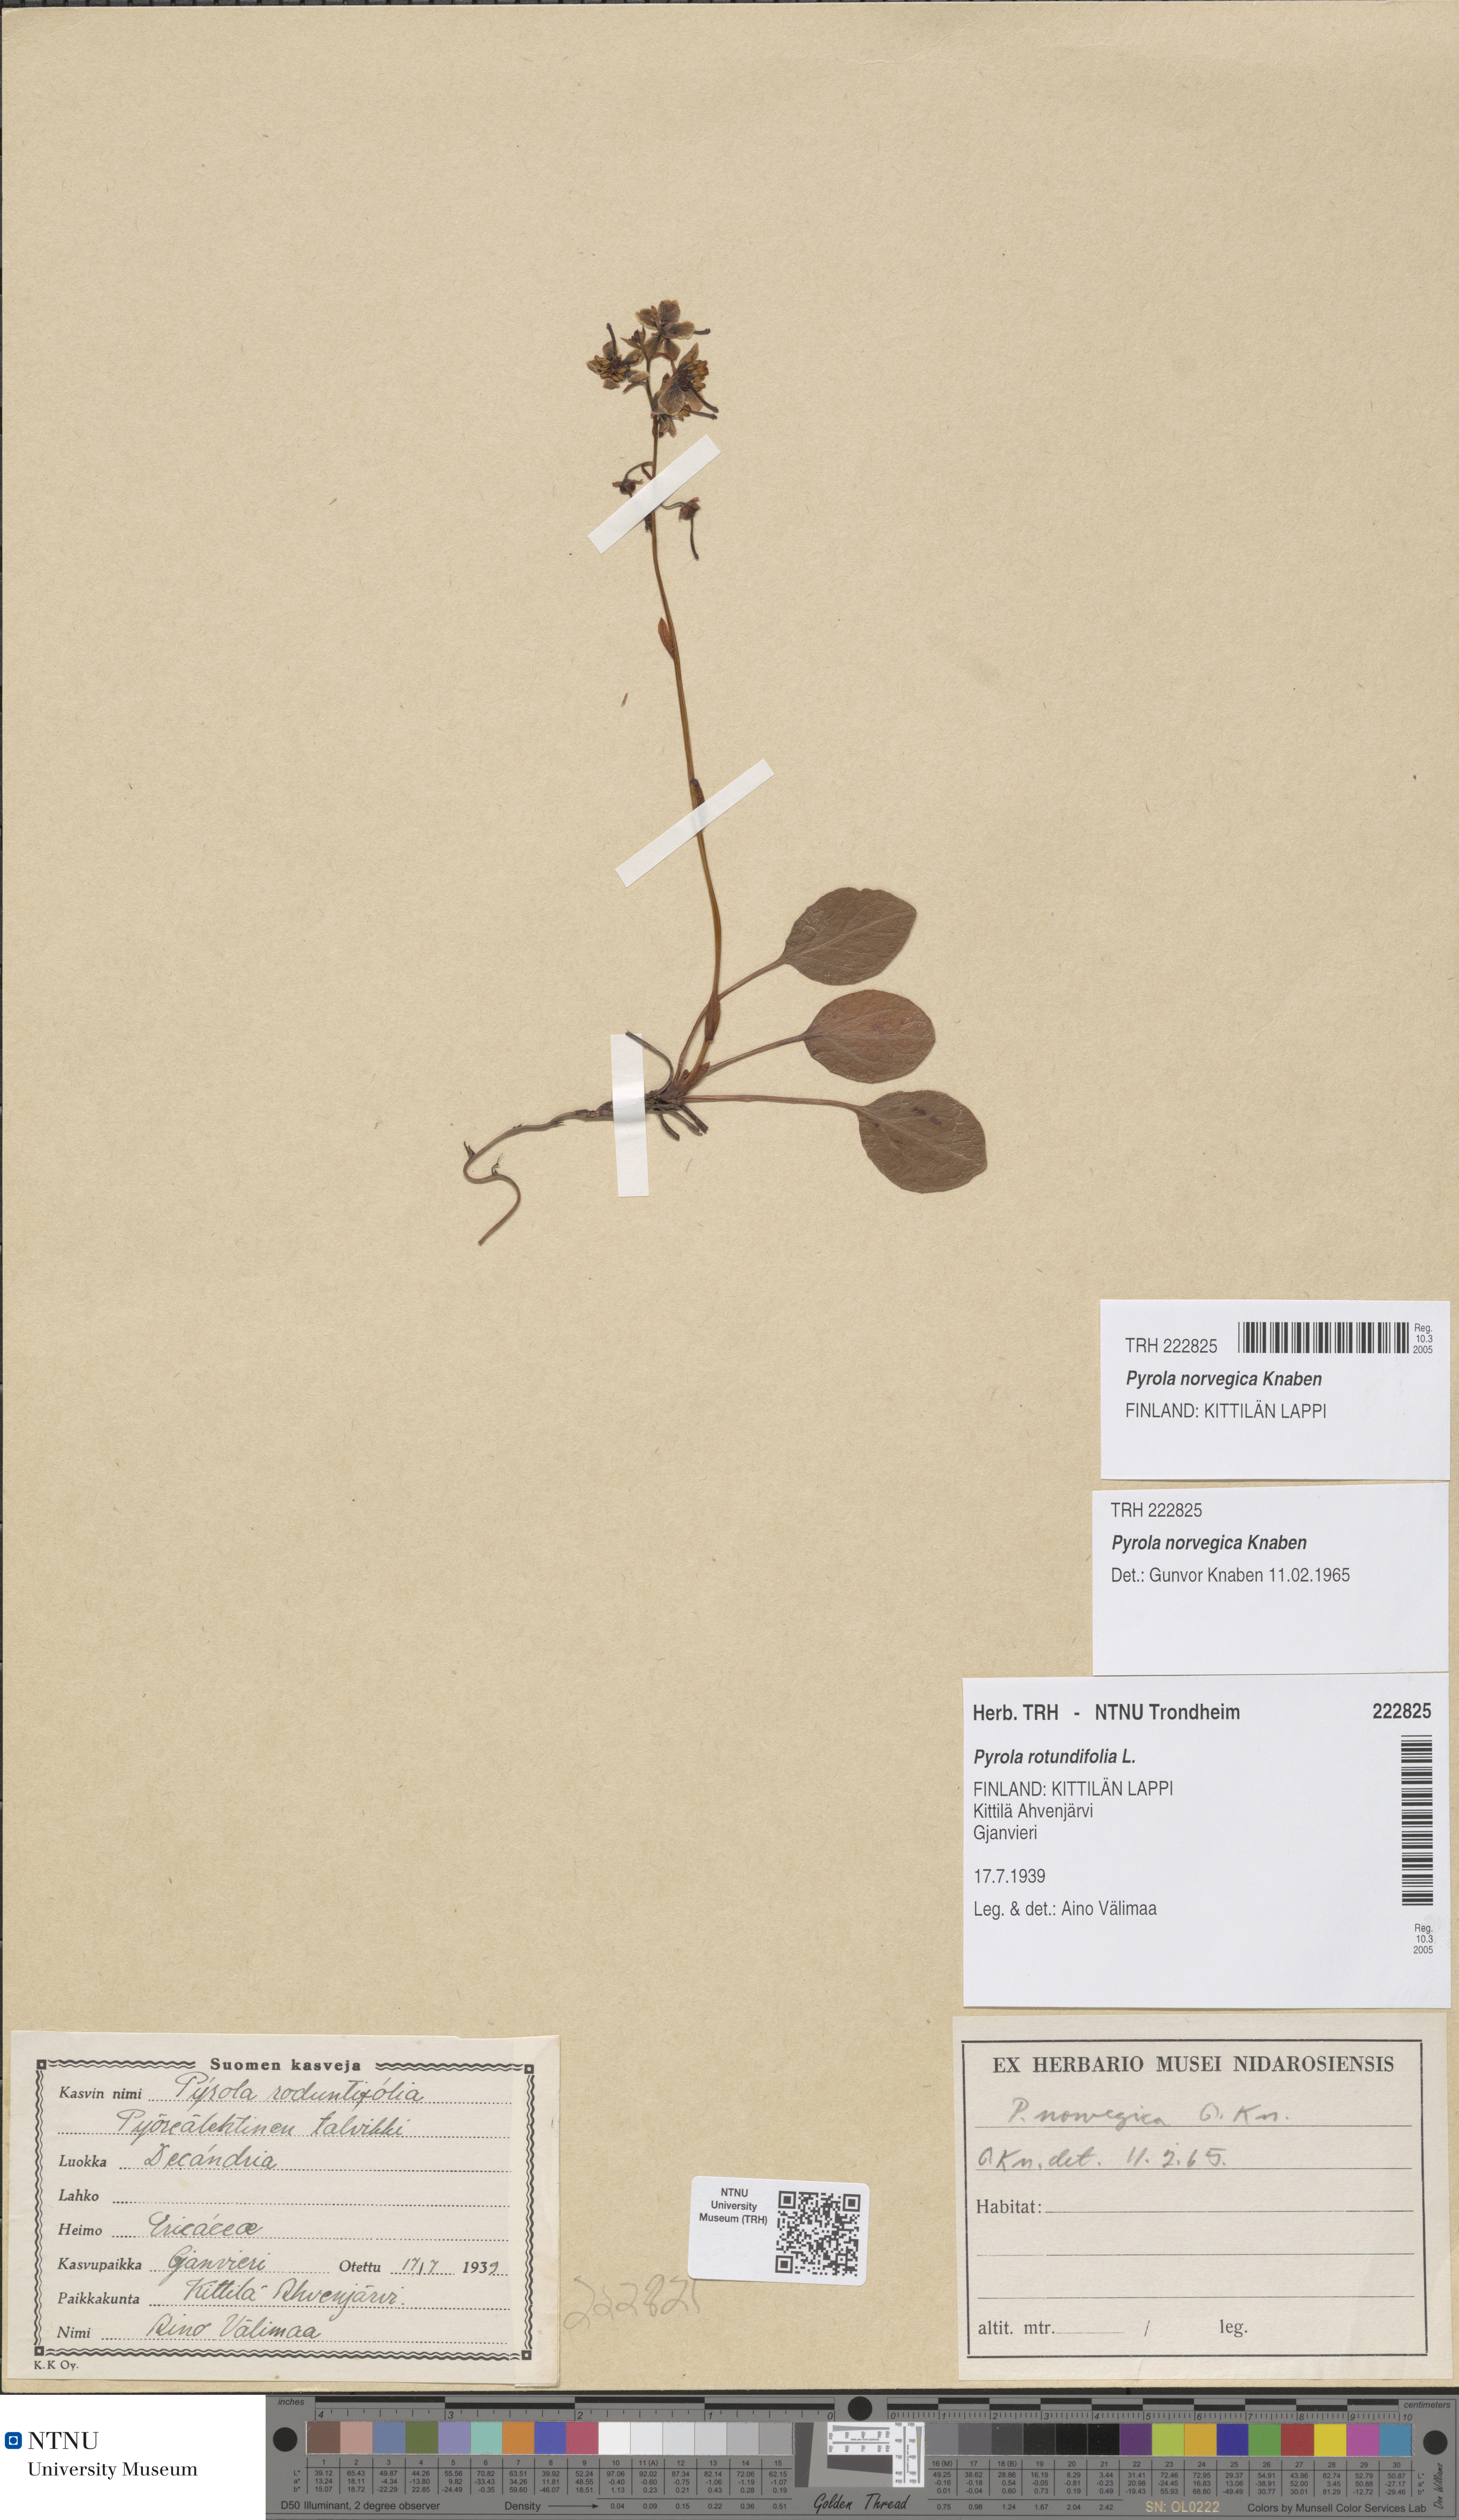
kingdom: Plantae
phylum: Tracheophyta
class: Magnoliopsida
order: Ericales
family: Ericaceae
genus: Pyrola
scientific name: Pyrola rotundifolia
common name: Round-leaved wintergreen
